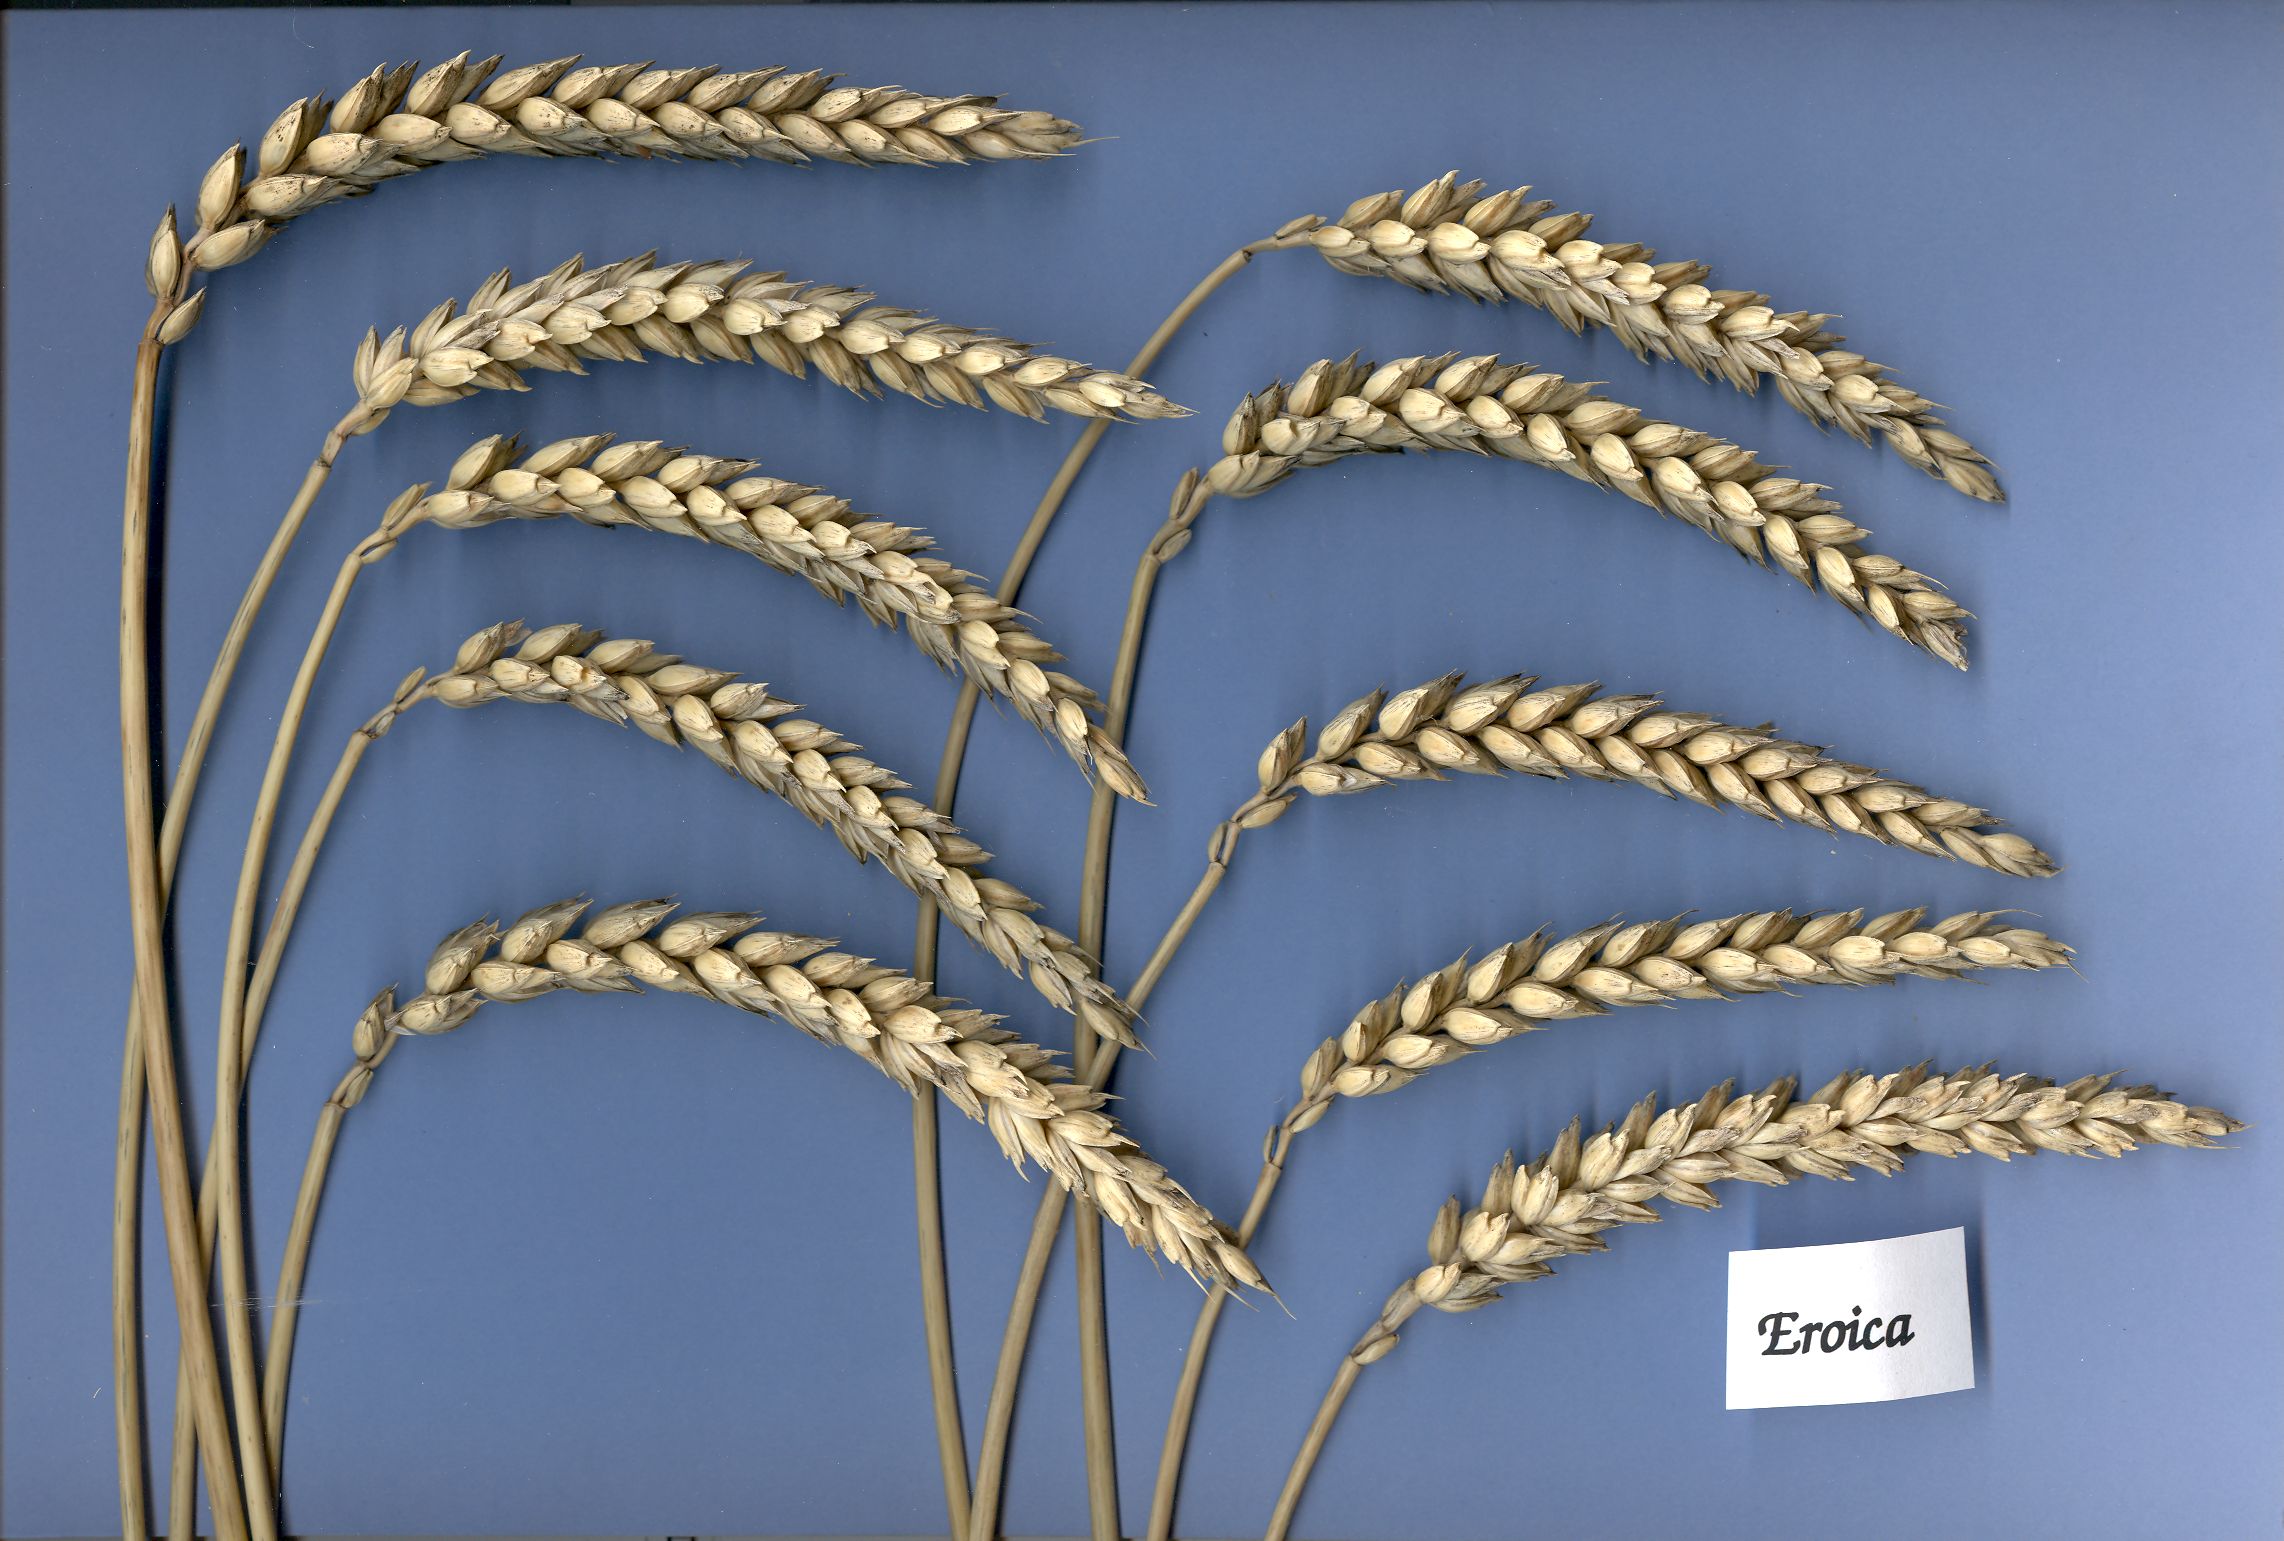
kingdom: Plantae
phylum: Tracheophyta
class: Liliopsida
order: Poales
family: Poaceae
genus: Triticum
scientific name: Triticum aestivum
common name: Common wheat
